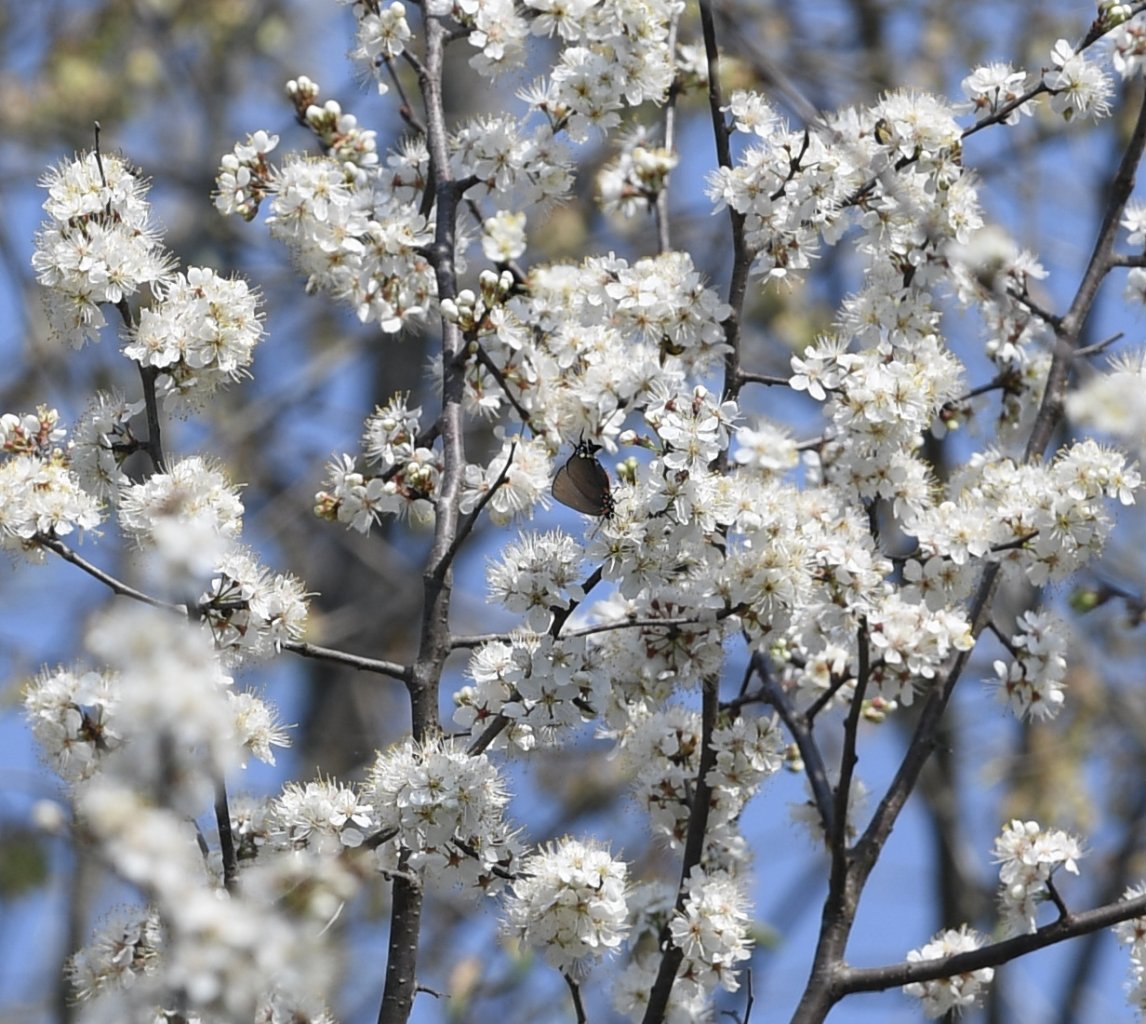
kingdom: Animalia
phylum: Arthropoda
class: Insecta
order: Lepidoptera
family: Lycaenidae
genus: Atlides
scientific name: Atlides halesus
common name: Great Purple Hairstreak
